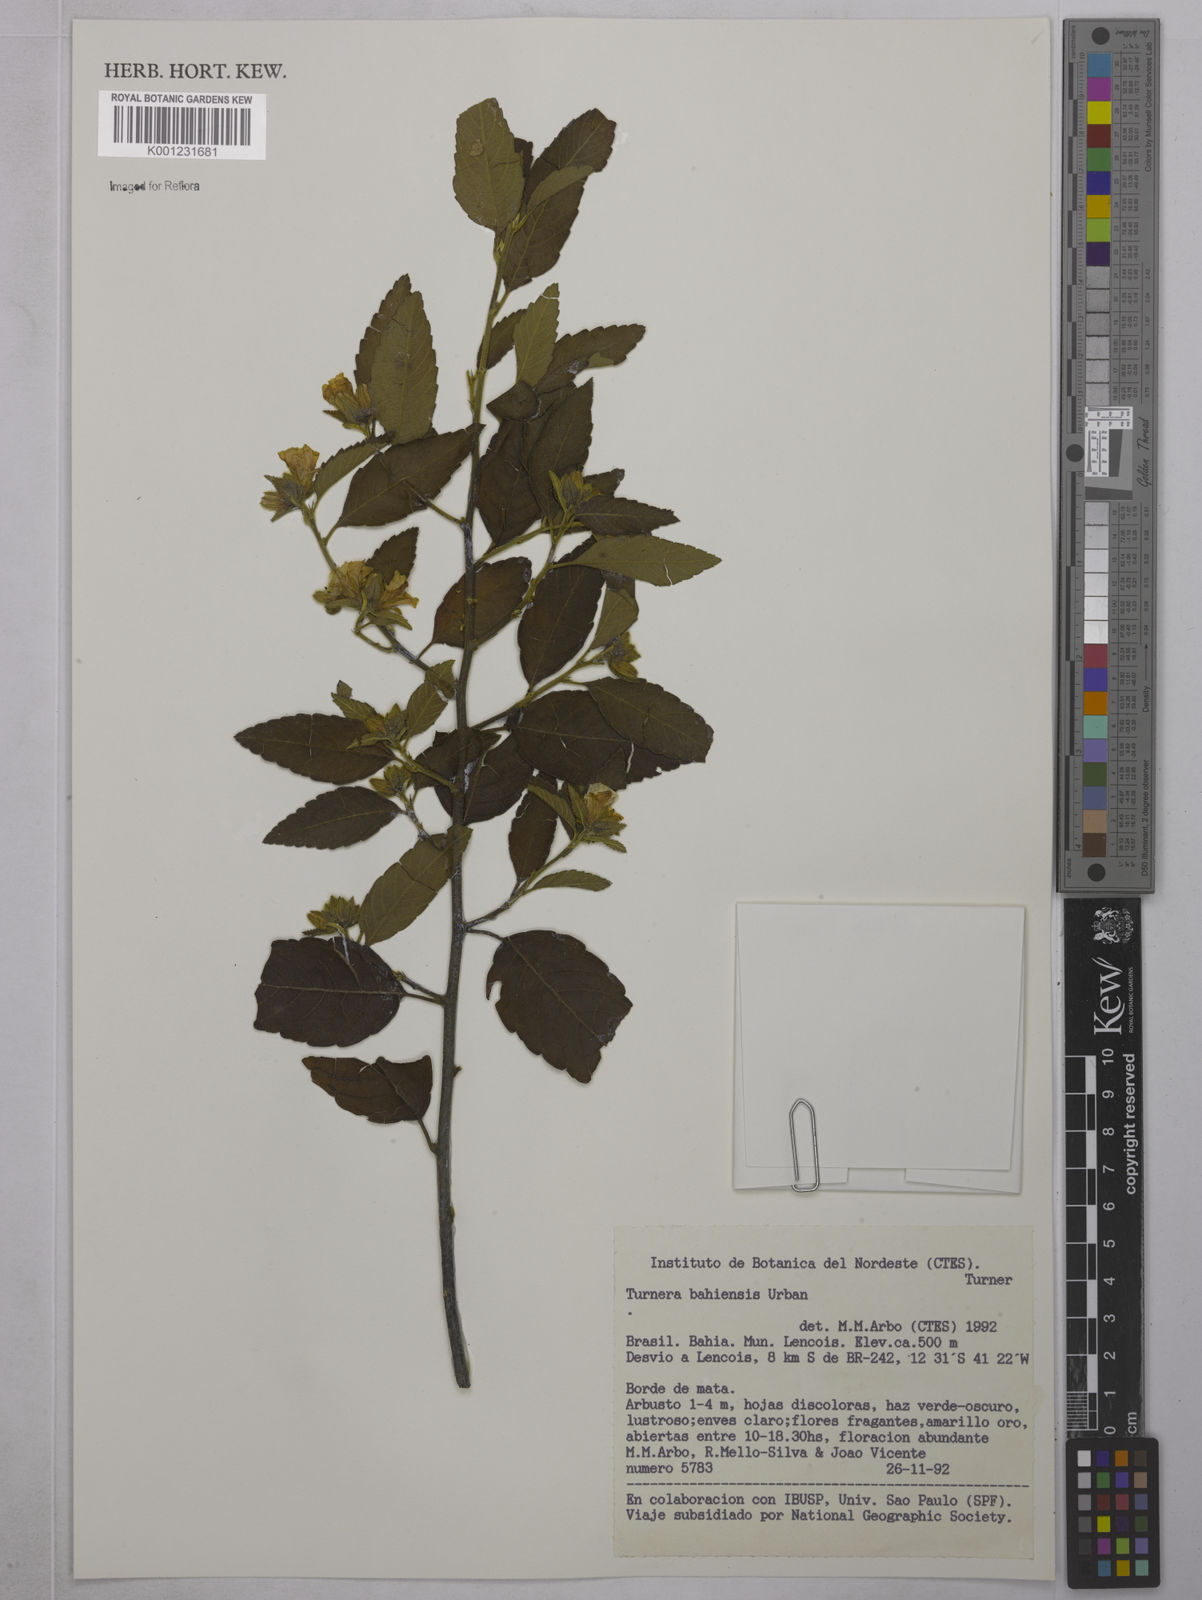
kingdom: Plantae
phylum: Tracheophyta
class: Magnoliopsida
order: Malpighiales
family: Turneraceae
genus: Turnera
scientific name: Turnera bahiensis
